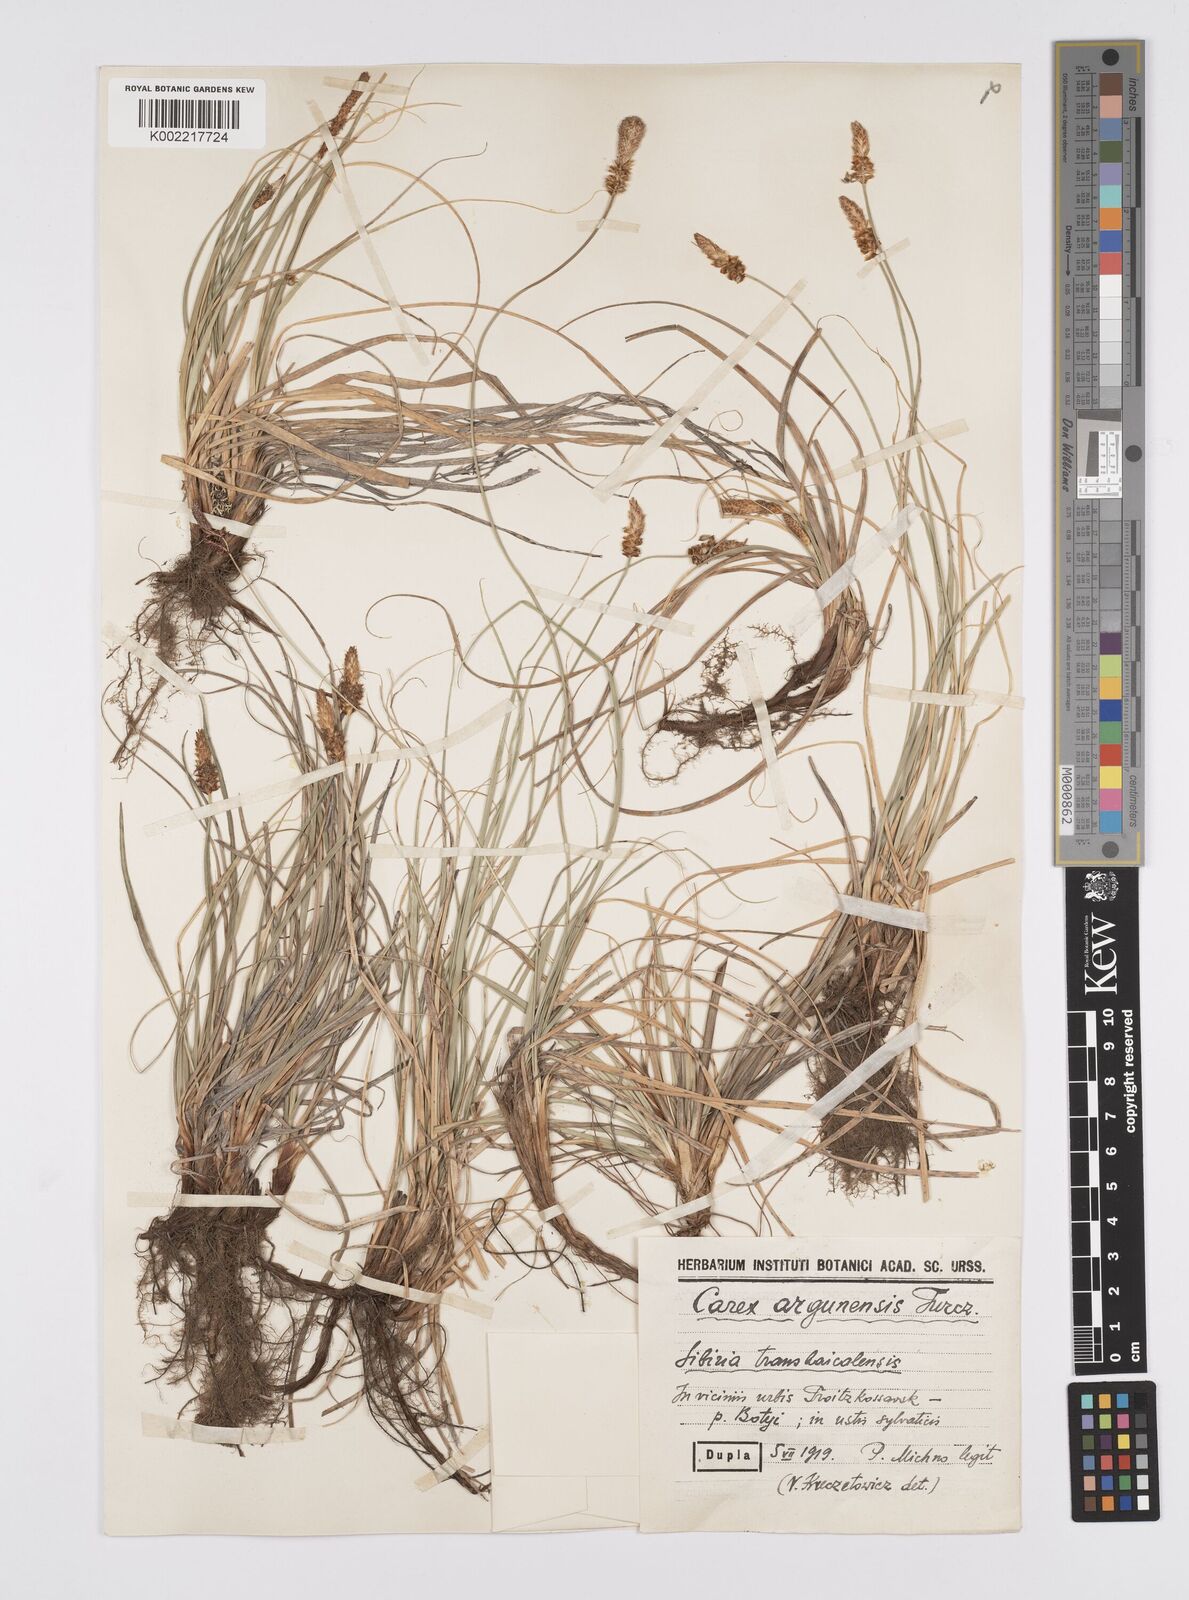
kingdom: Plantae
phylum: Tracheophyta
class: Liliopsida
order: Poales
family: Cyperaceae
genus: Carex
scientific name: Carex argunensis
